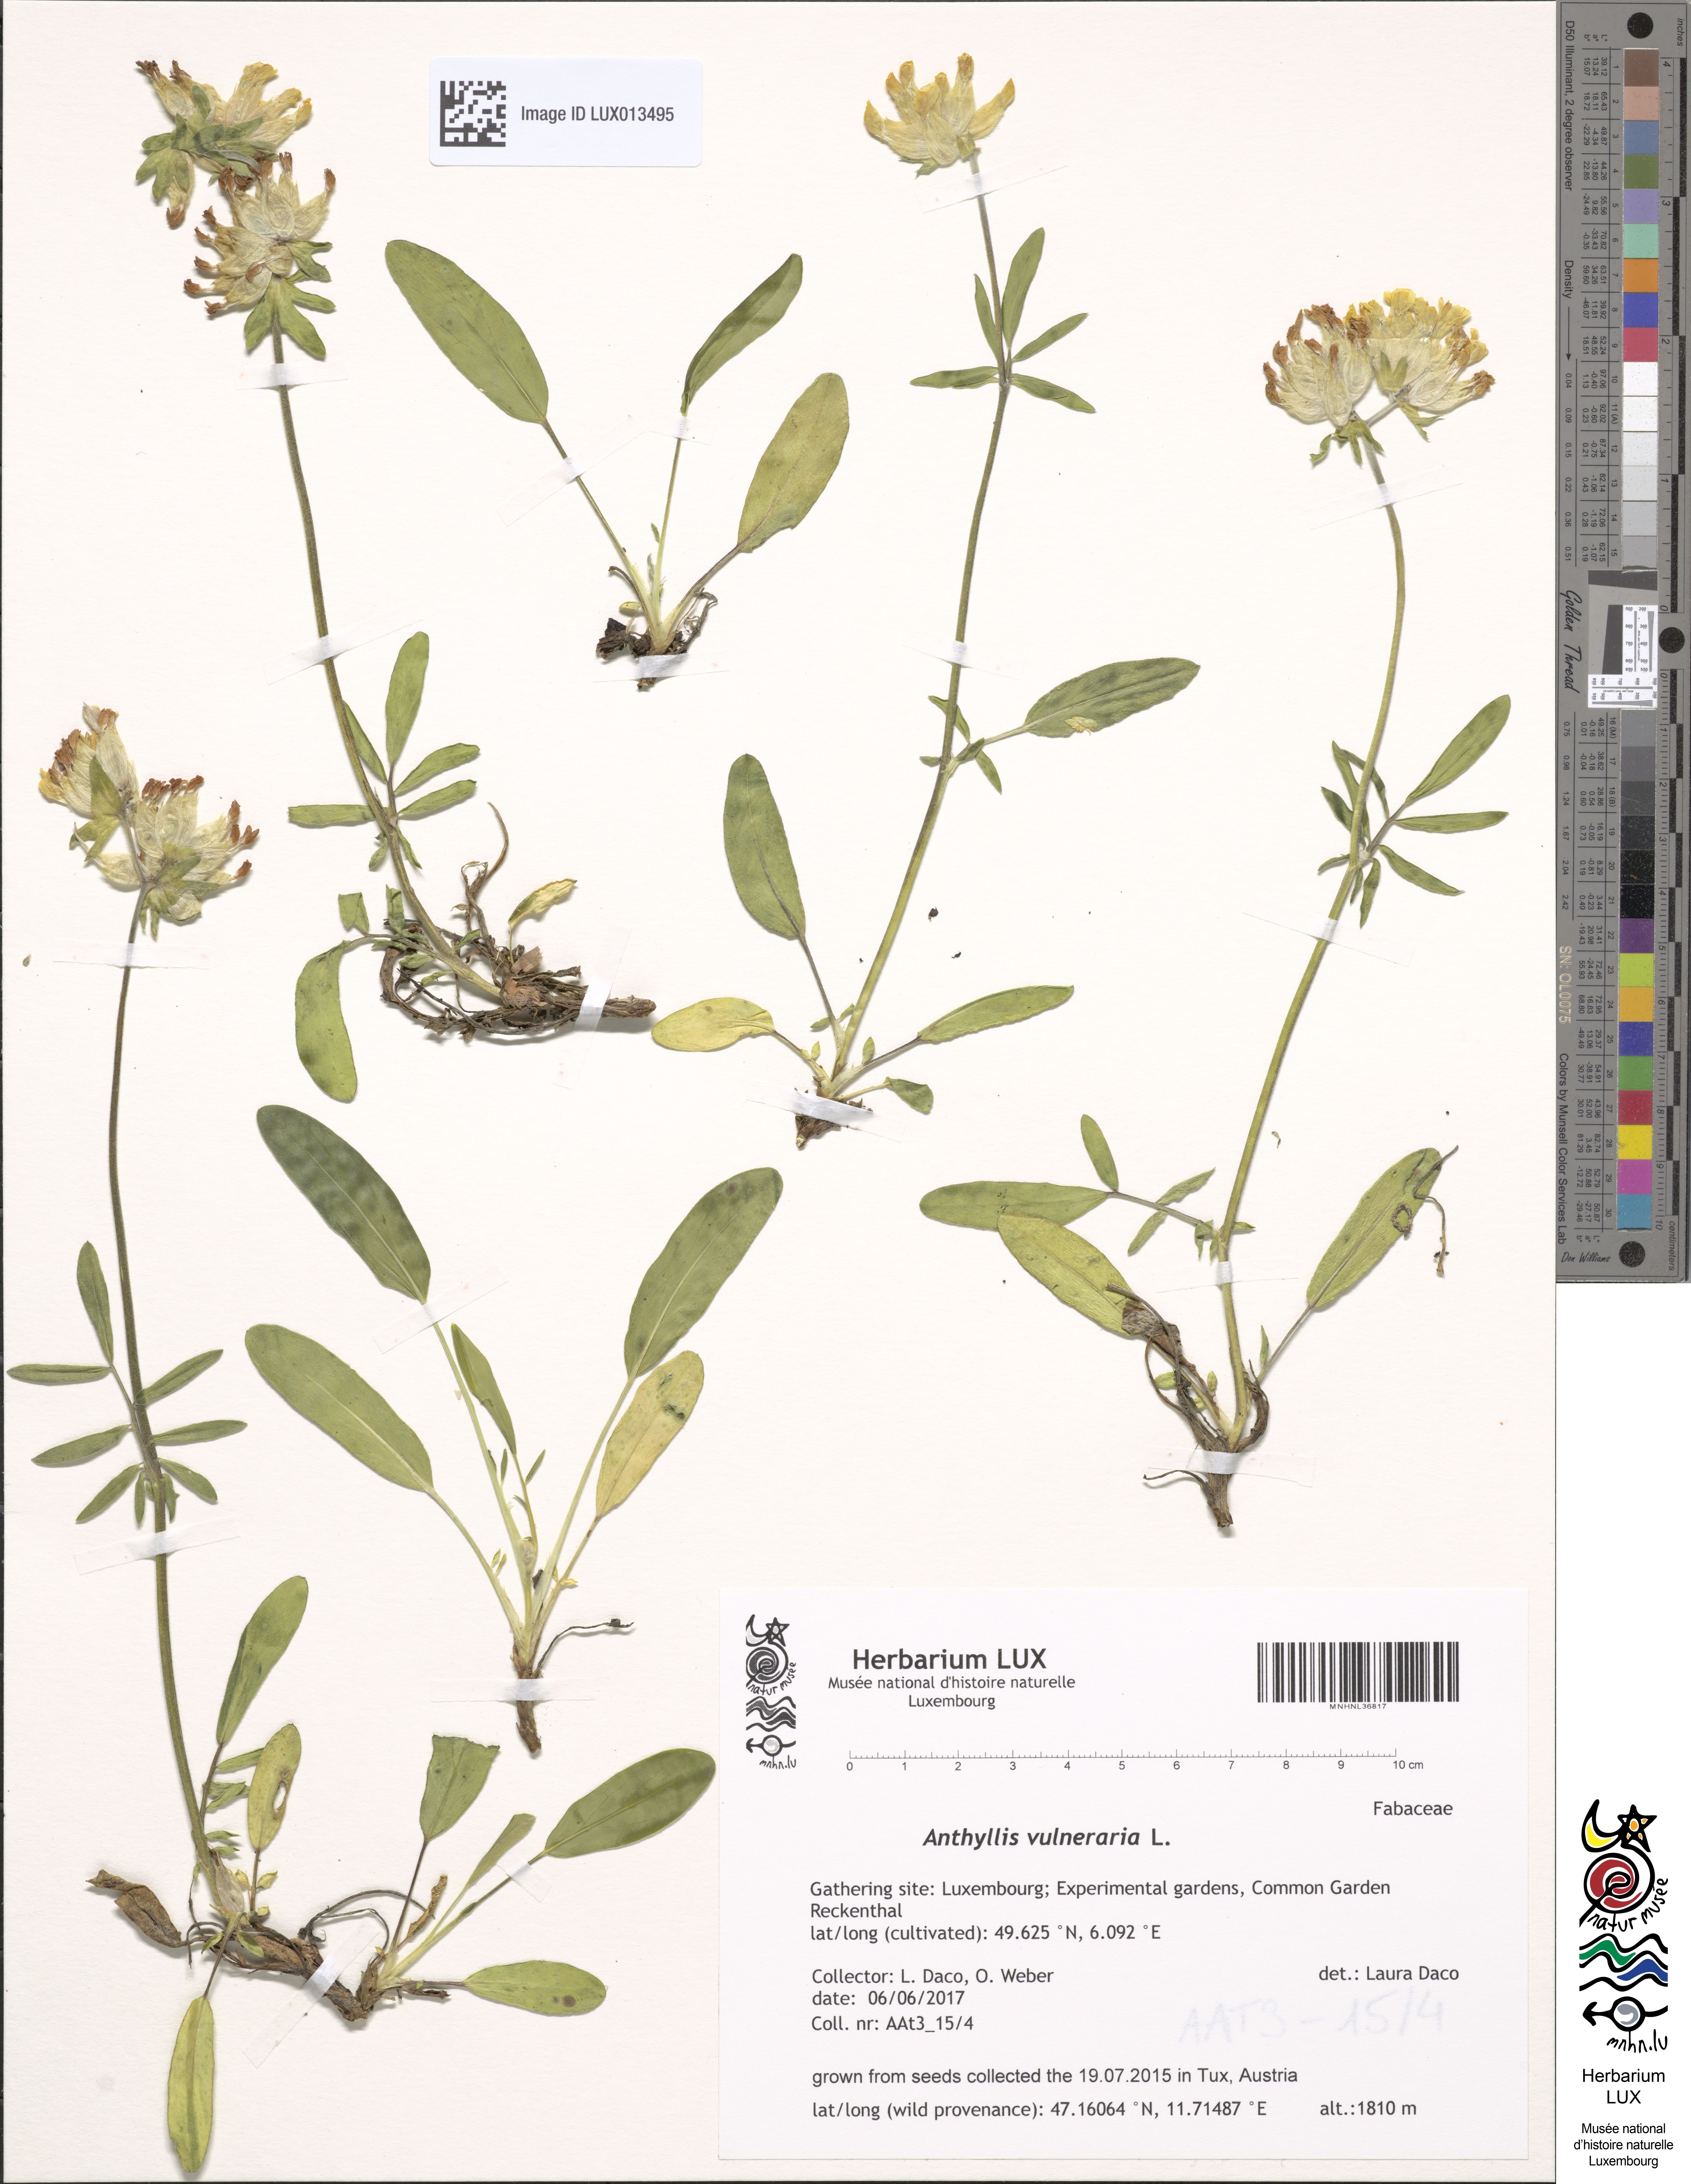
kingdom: Plantae
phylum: Tracheophyta
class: Magnoliopsida
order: Fabales
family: Fabaceae
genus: Anthyllis
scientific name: Anthyllis vulneraria
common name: Kidney vetch
